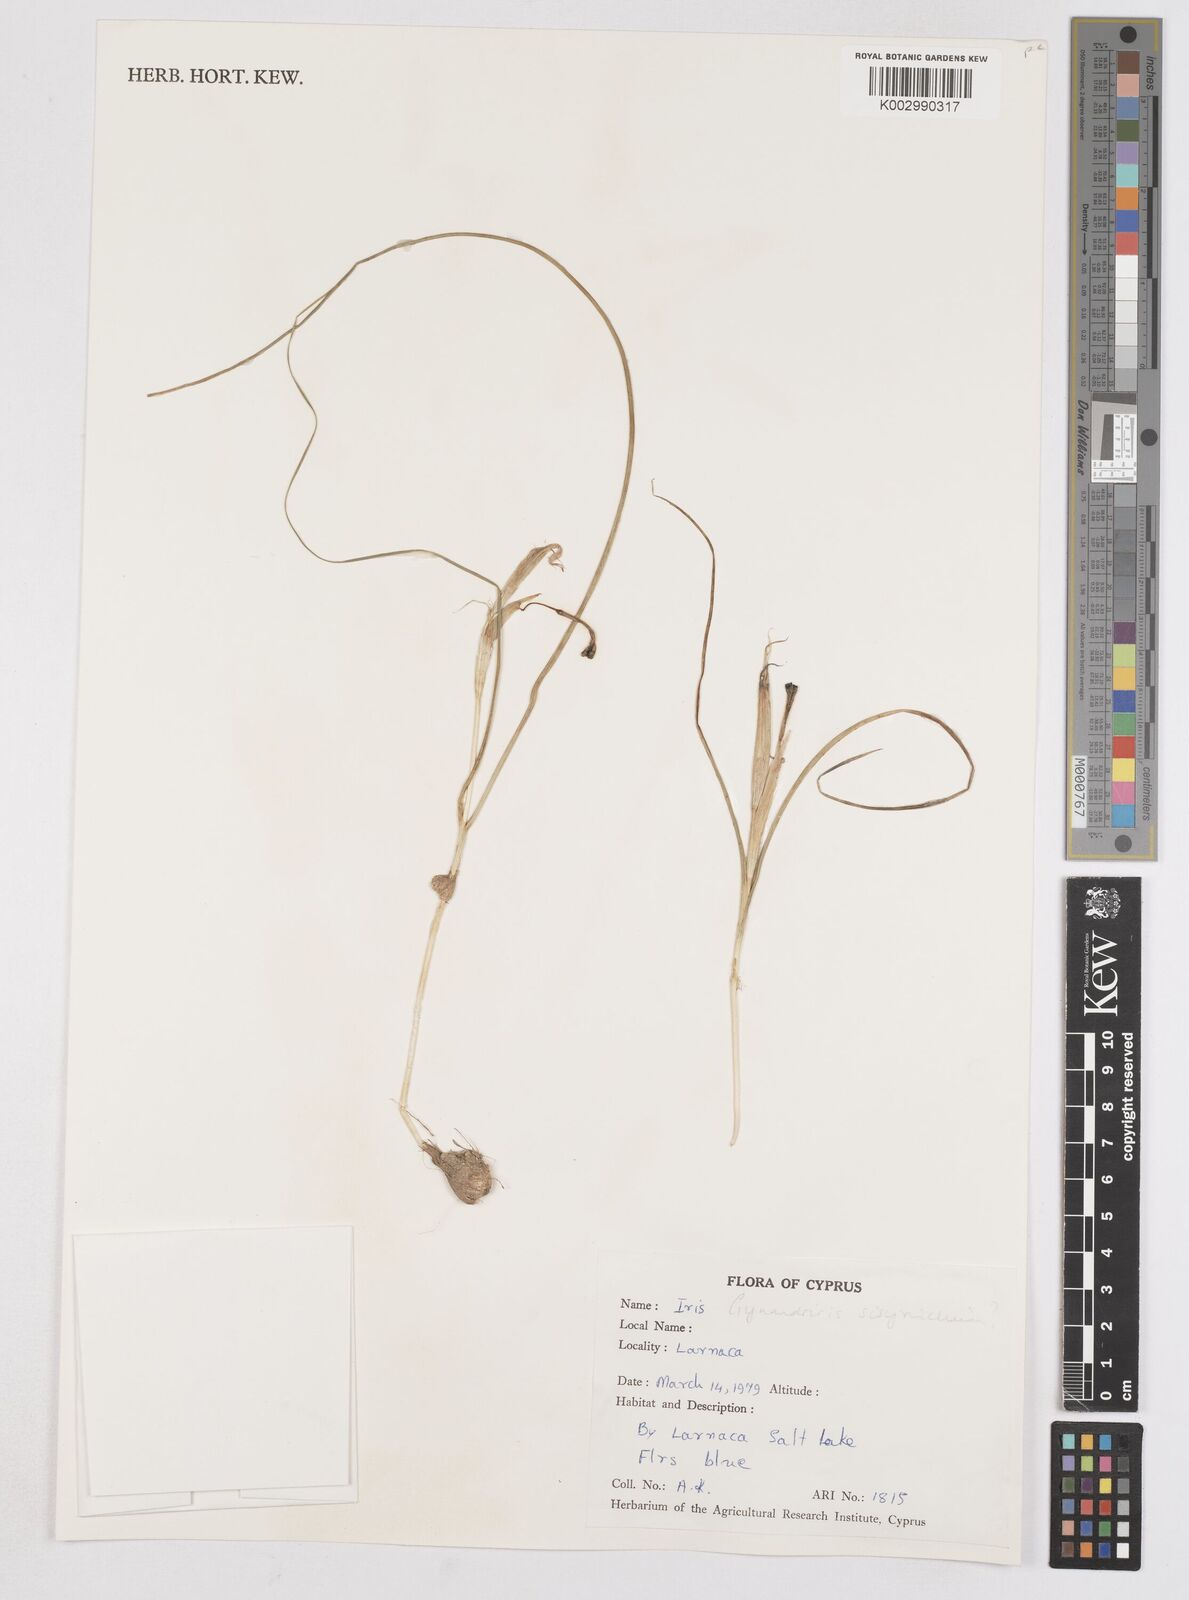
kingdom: Plantae
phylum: Tracheophyta
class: Liliopsida
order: Asparagales
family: Iridaceae
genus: Moraea
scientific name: Moraea sisyrinchium
